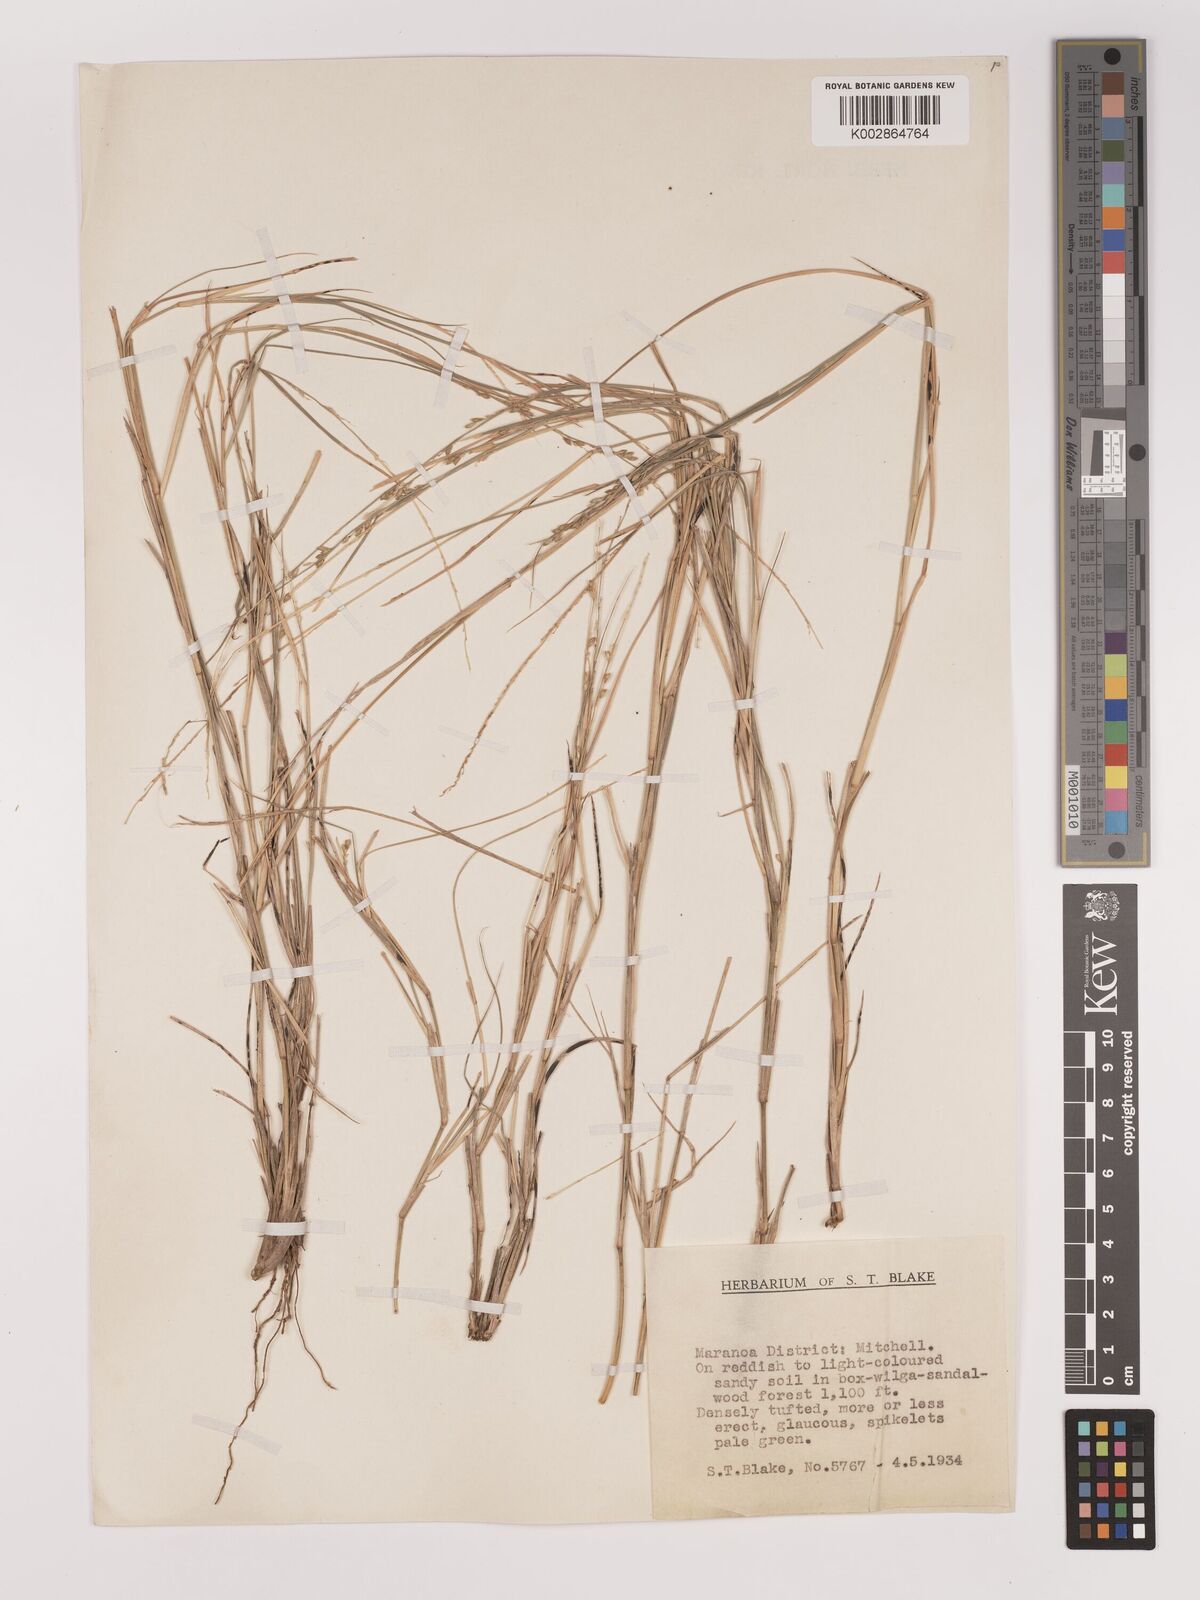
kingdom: Plantae
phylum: Tracheophyta
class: Liliopsida
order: Poales
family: Poaceae
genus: Setaria
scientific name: Setaria constricta
